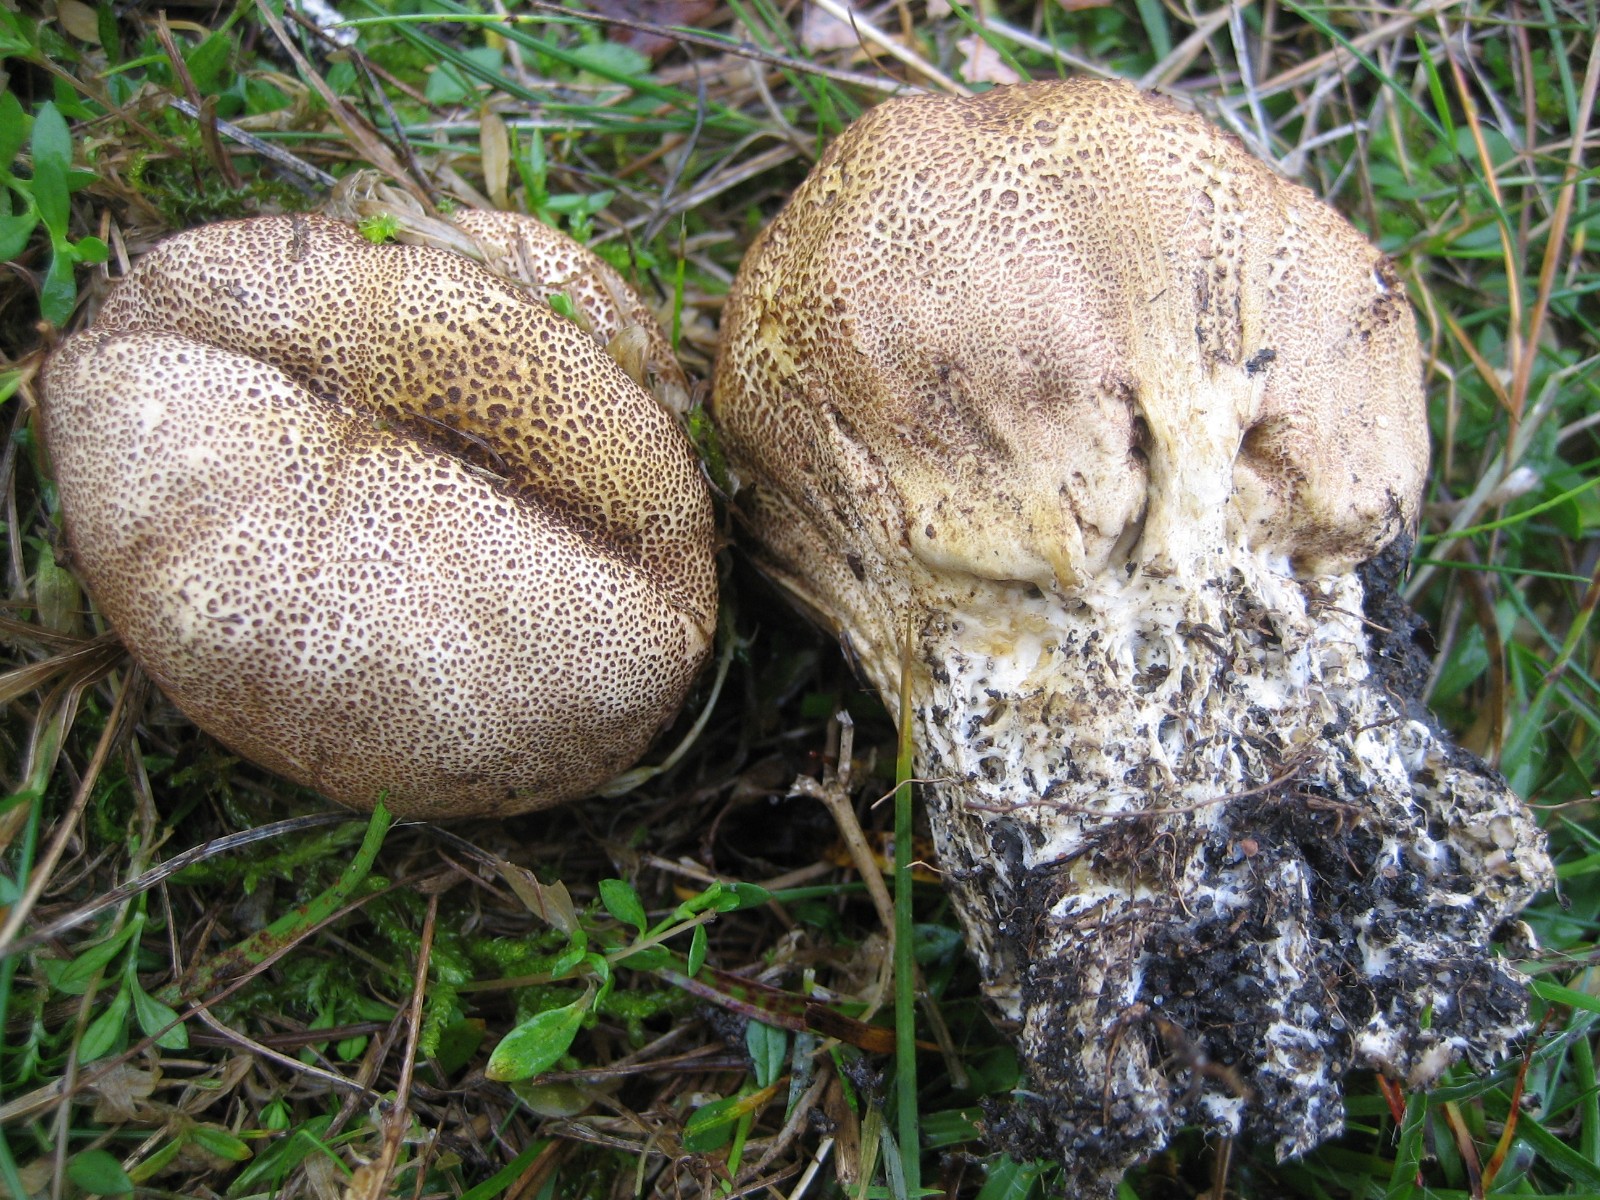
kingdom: Fungi
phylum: Basidiomycota
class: Agaricomycetes
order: Boletales
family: Sclerodermataceae
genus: Scleroderma
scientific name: Scleroderma verrucosum
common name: stilket bruskbold
